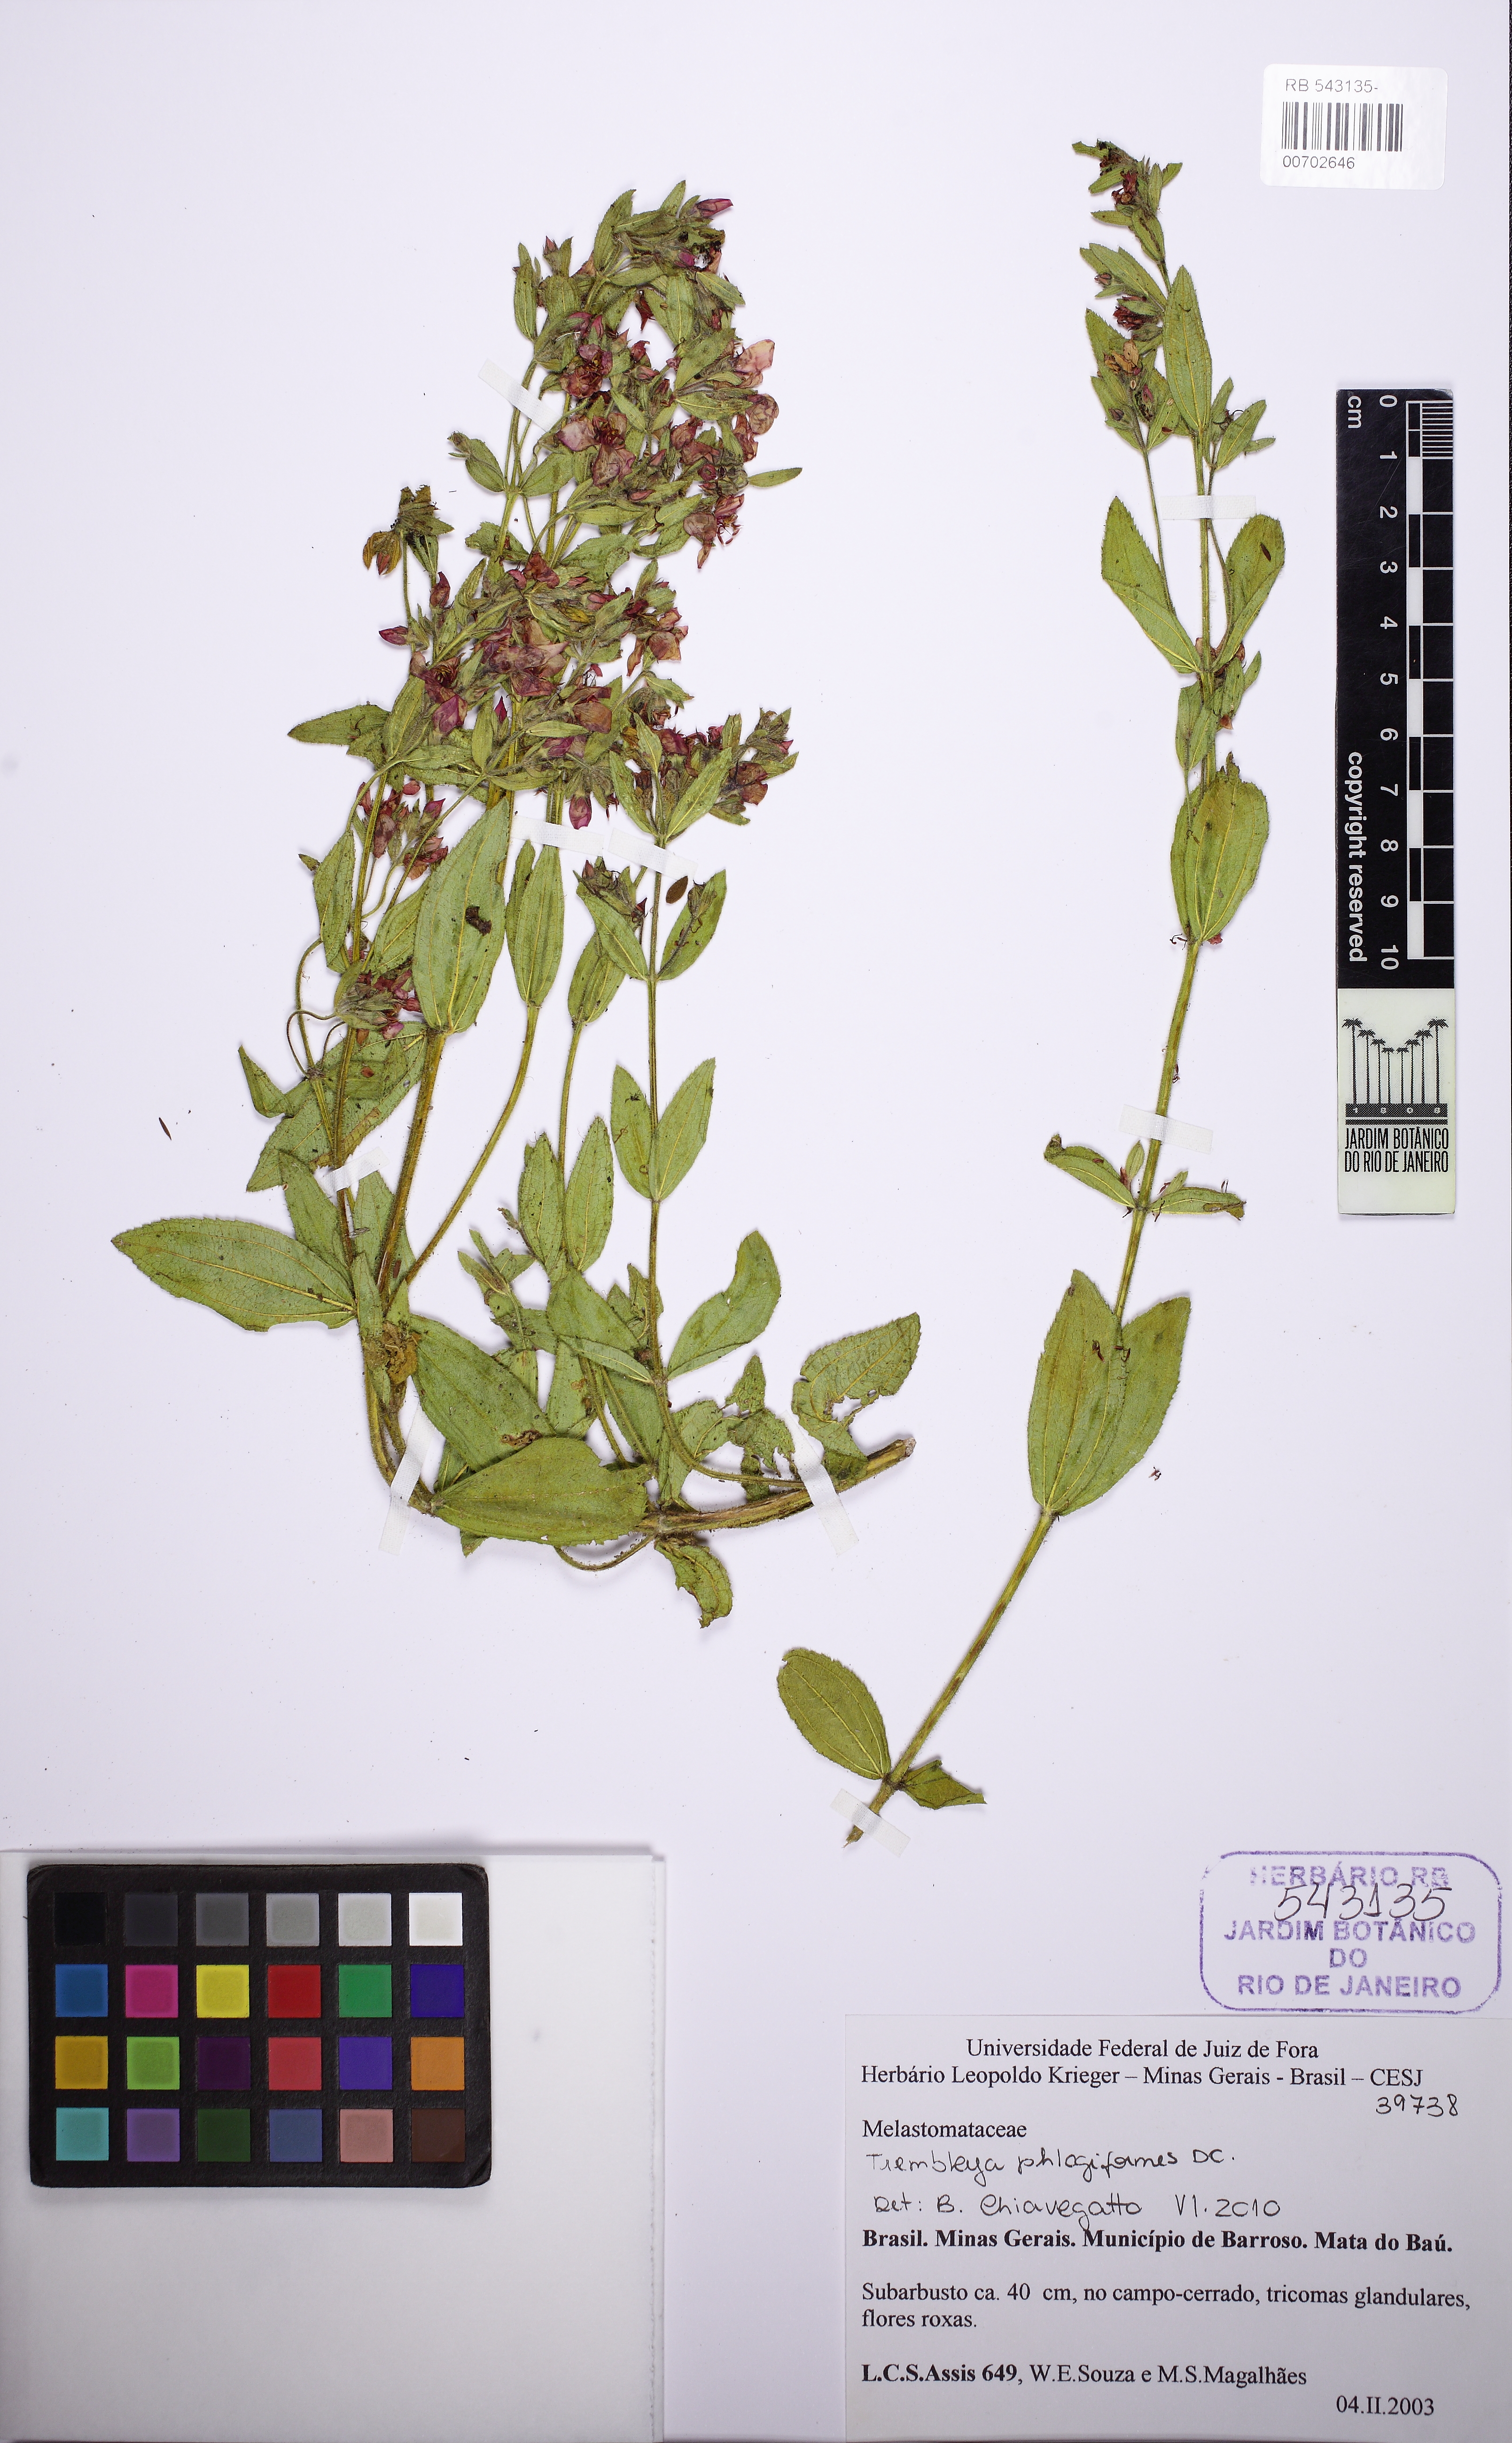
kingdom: Plantae
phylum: Tracheophyta
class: Magnoliopsida
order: Myrtales
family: Melastomataceae
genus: Microlicia
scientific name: Microlicia phlogiformis
